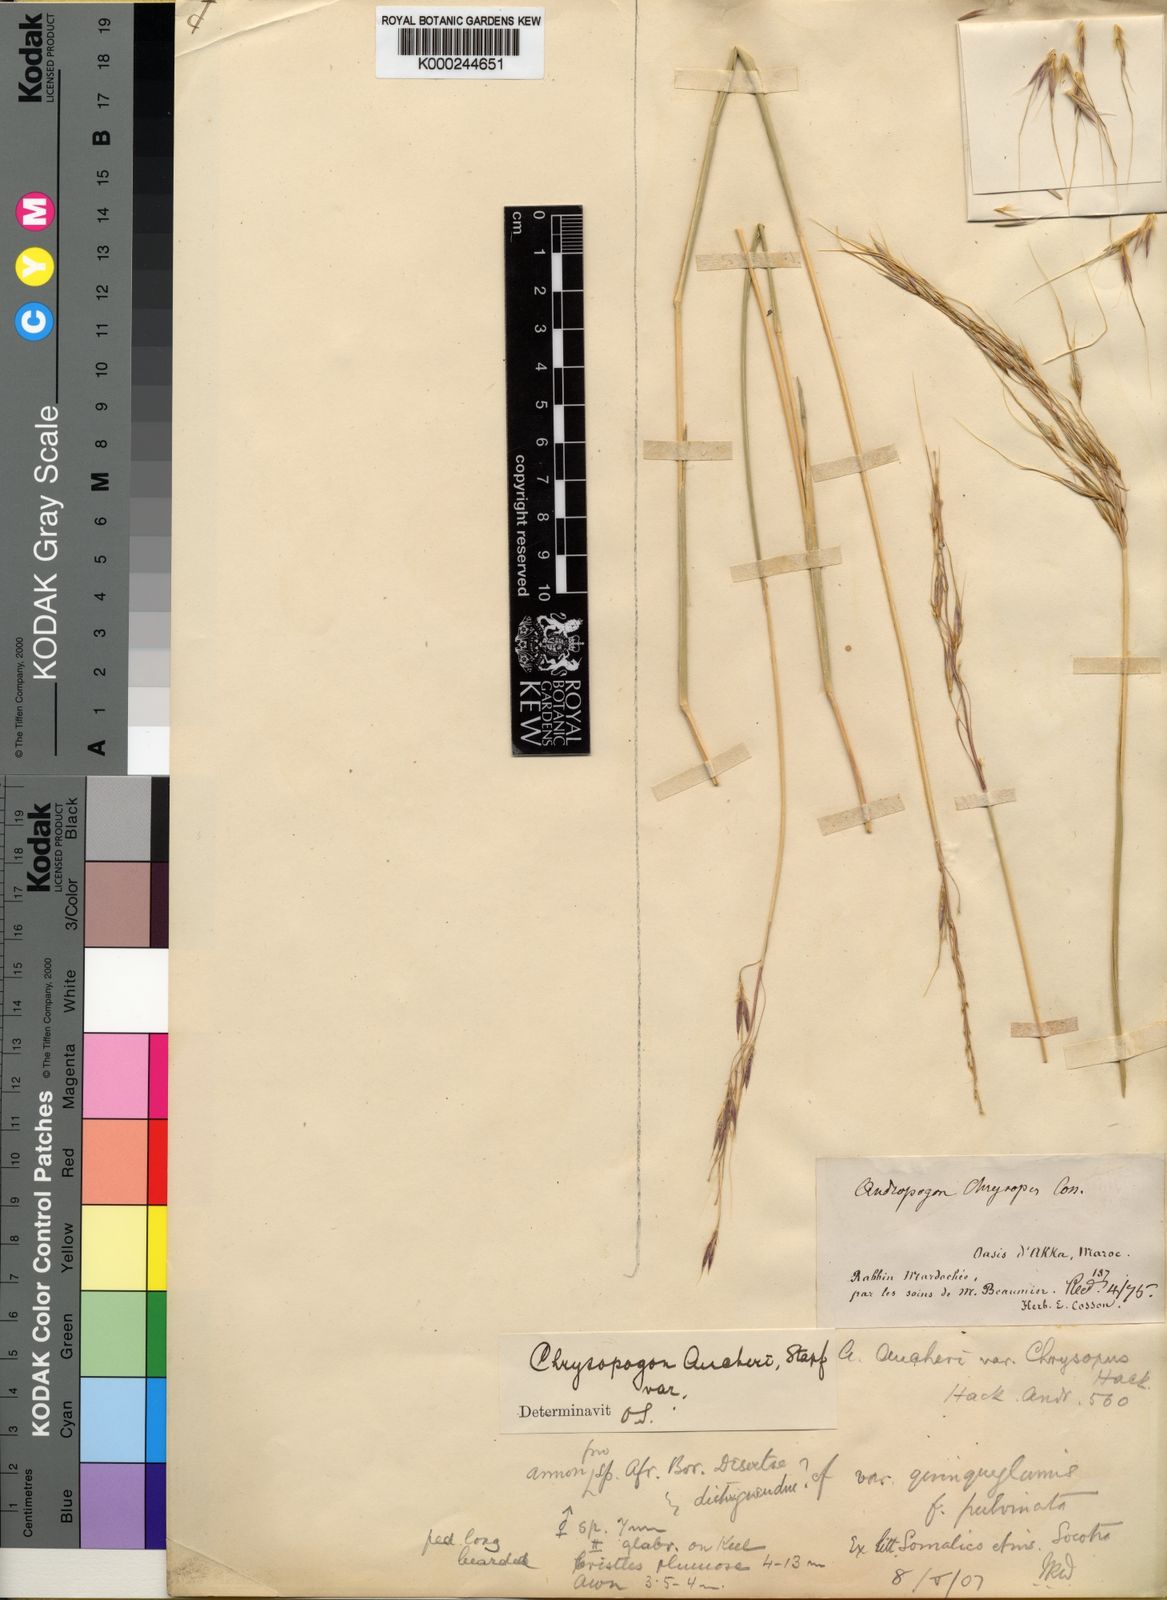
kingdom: Plantae
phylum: Tracheophyta
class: Liliopsida
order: Poales
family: Poaceae
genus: Chrysopogon
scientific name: Chrysopogon aucheri
